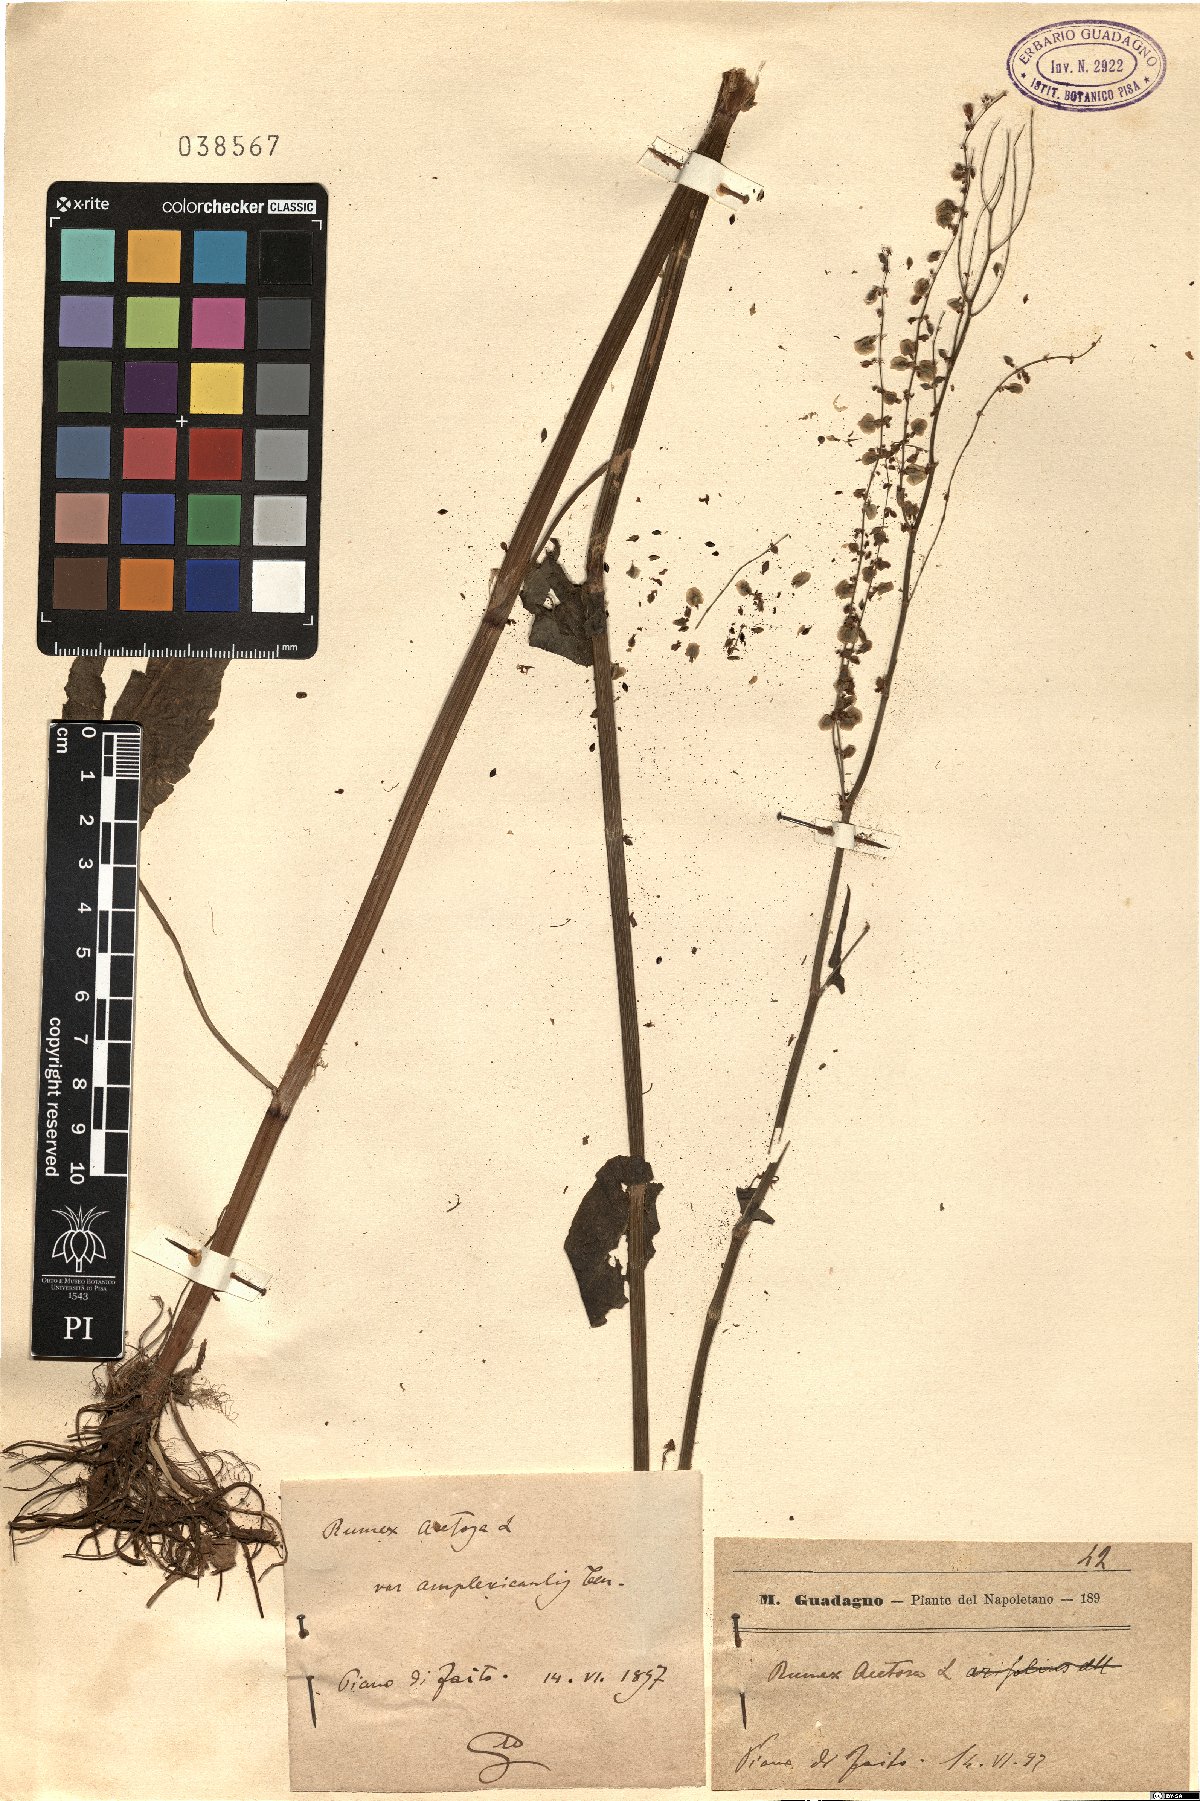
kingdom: Plantae
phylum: Tracheophyta
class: Magnoliopsida
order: Caryophyllales
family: Polygonaceae
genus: Rumex
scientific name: Rumex arifolius
